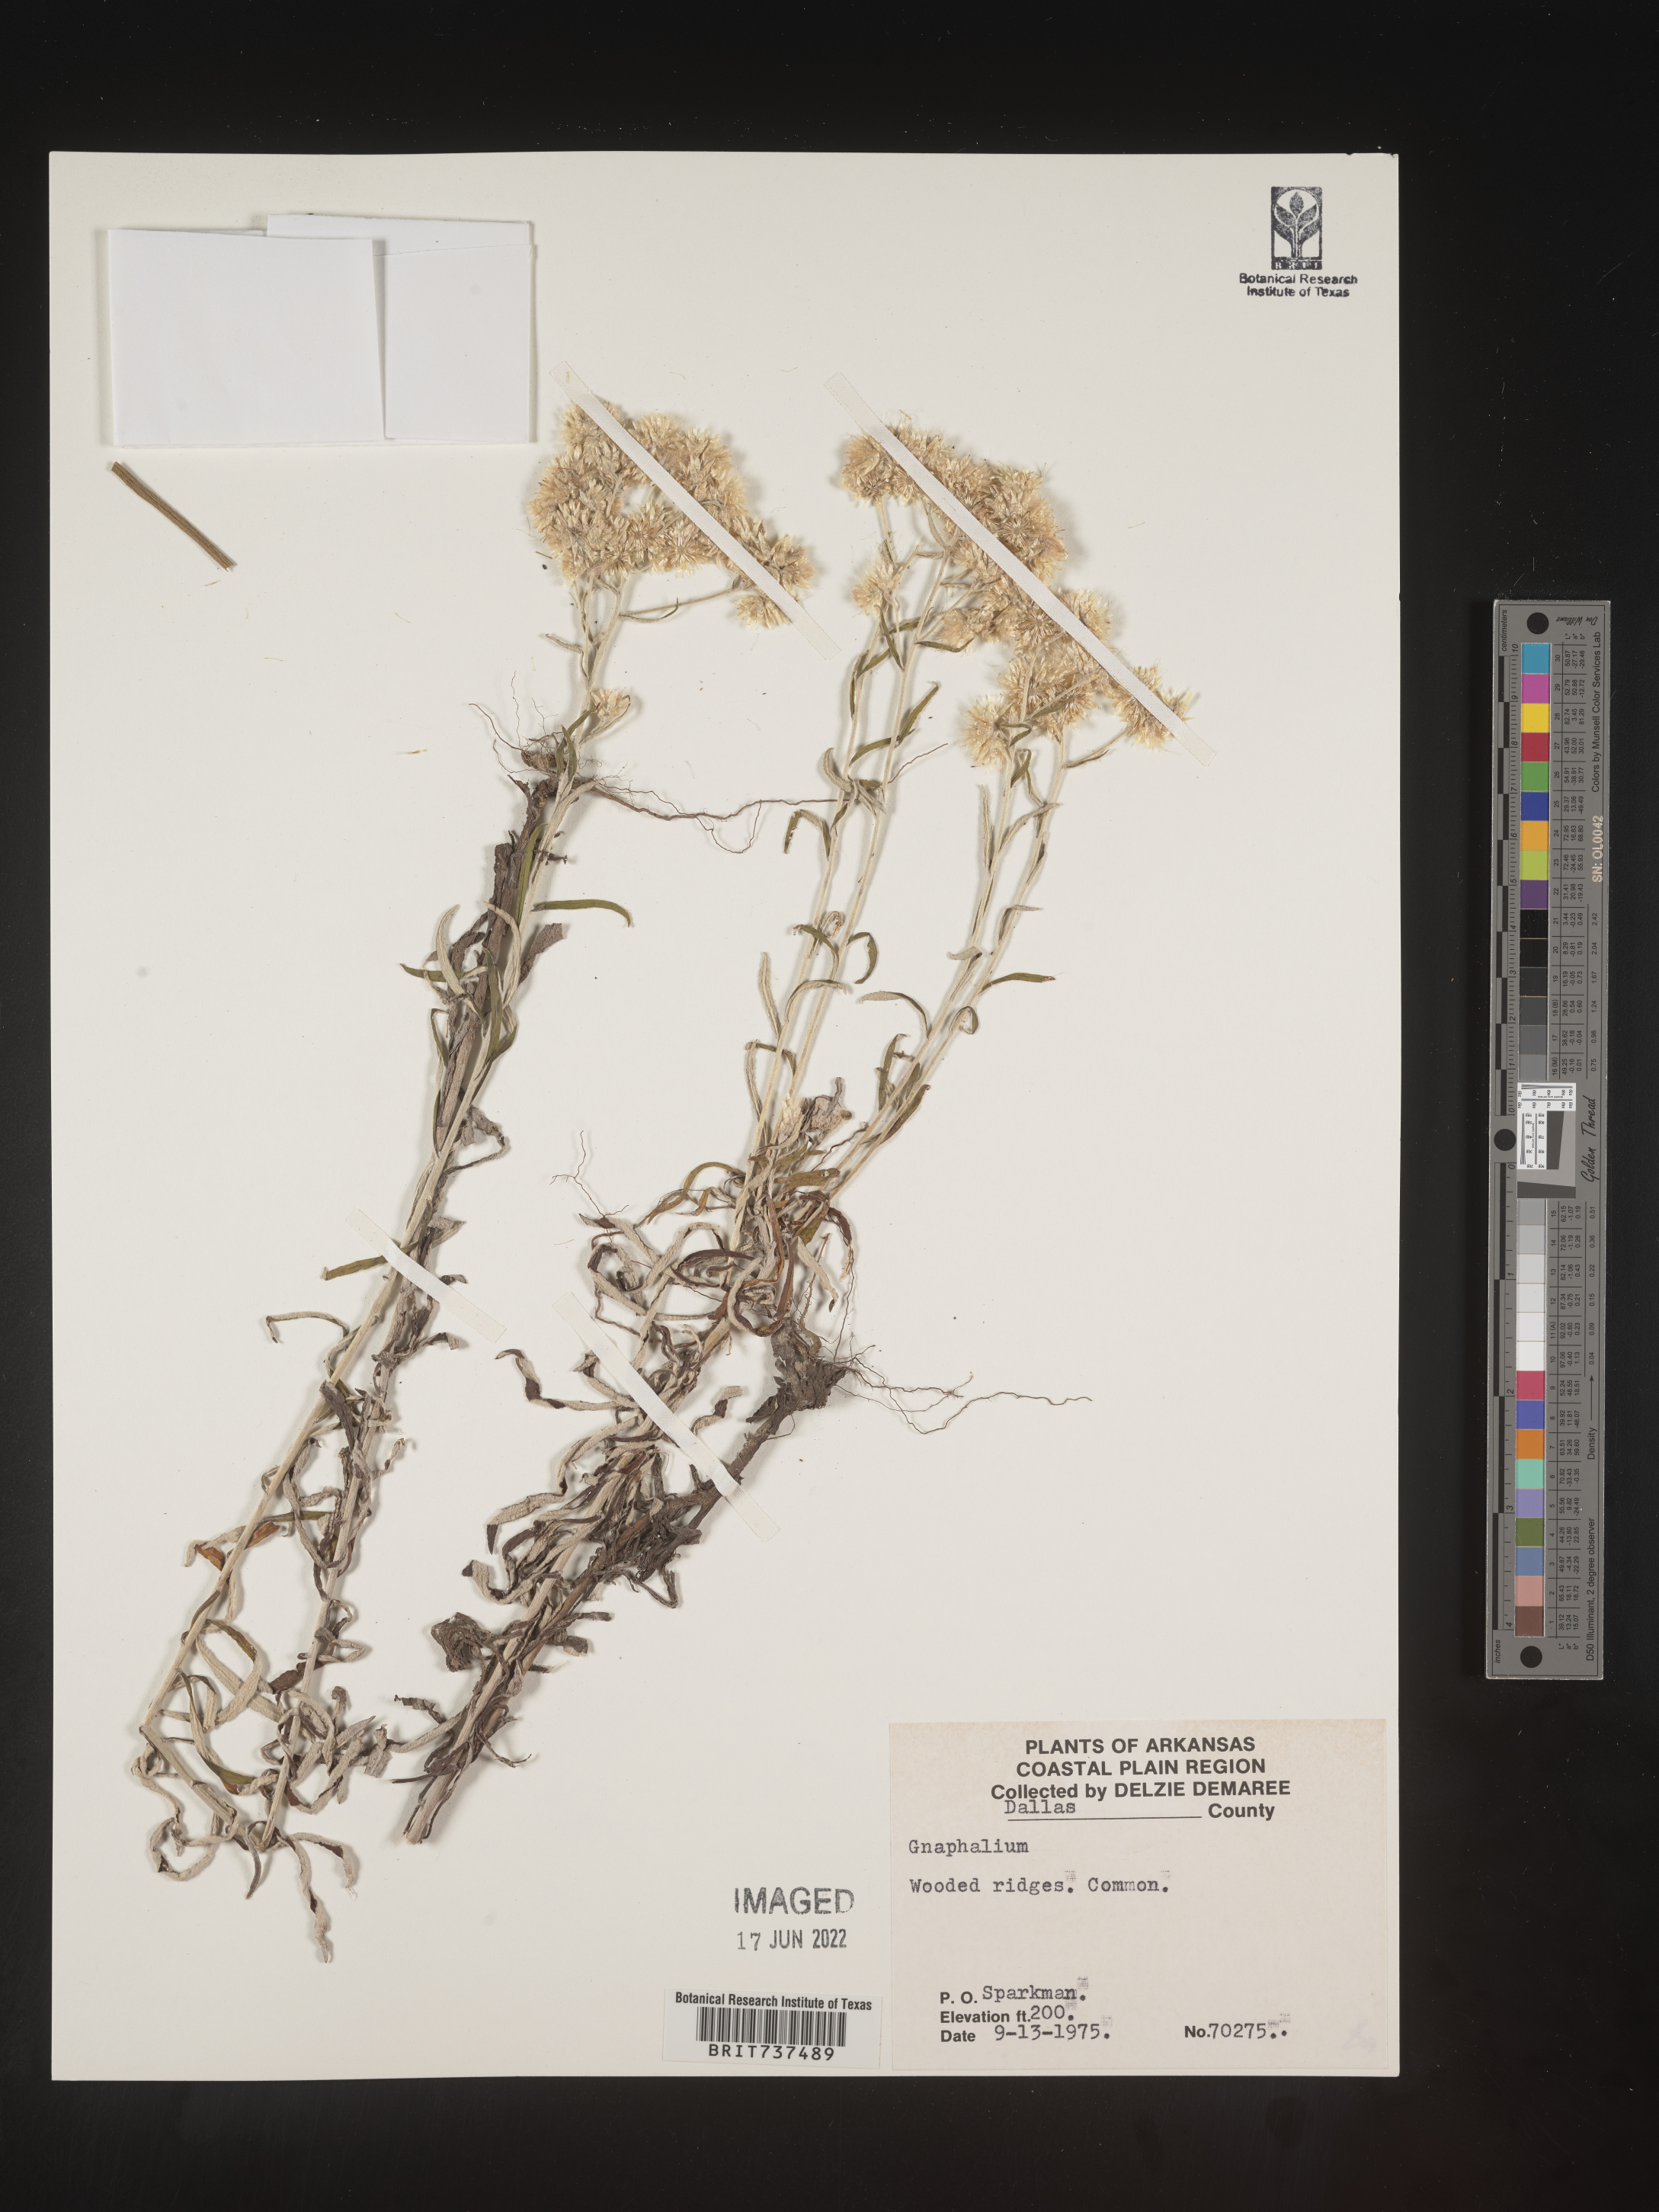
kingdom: Plantae
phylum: Tracheophyta
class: Magnoliopsida
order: Asterales
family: Asteraceae
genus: Pseudognaphalium
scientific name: Pseudognaphalium obtusifolium
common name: Eastern rabbit-tobacco
